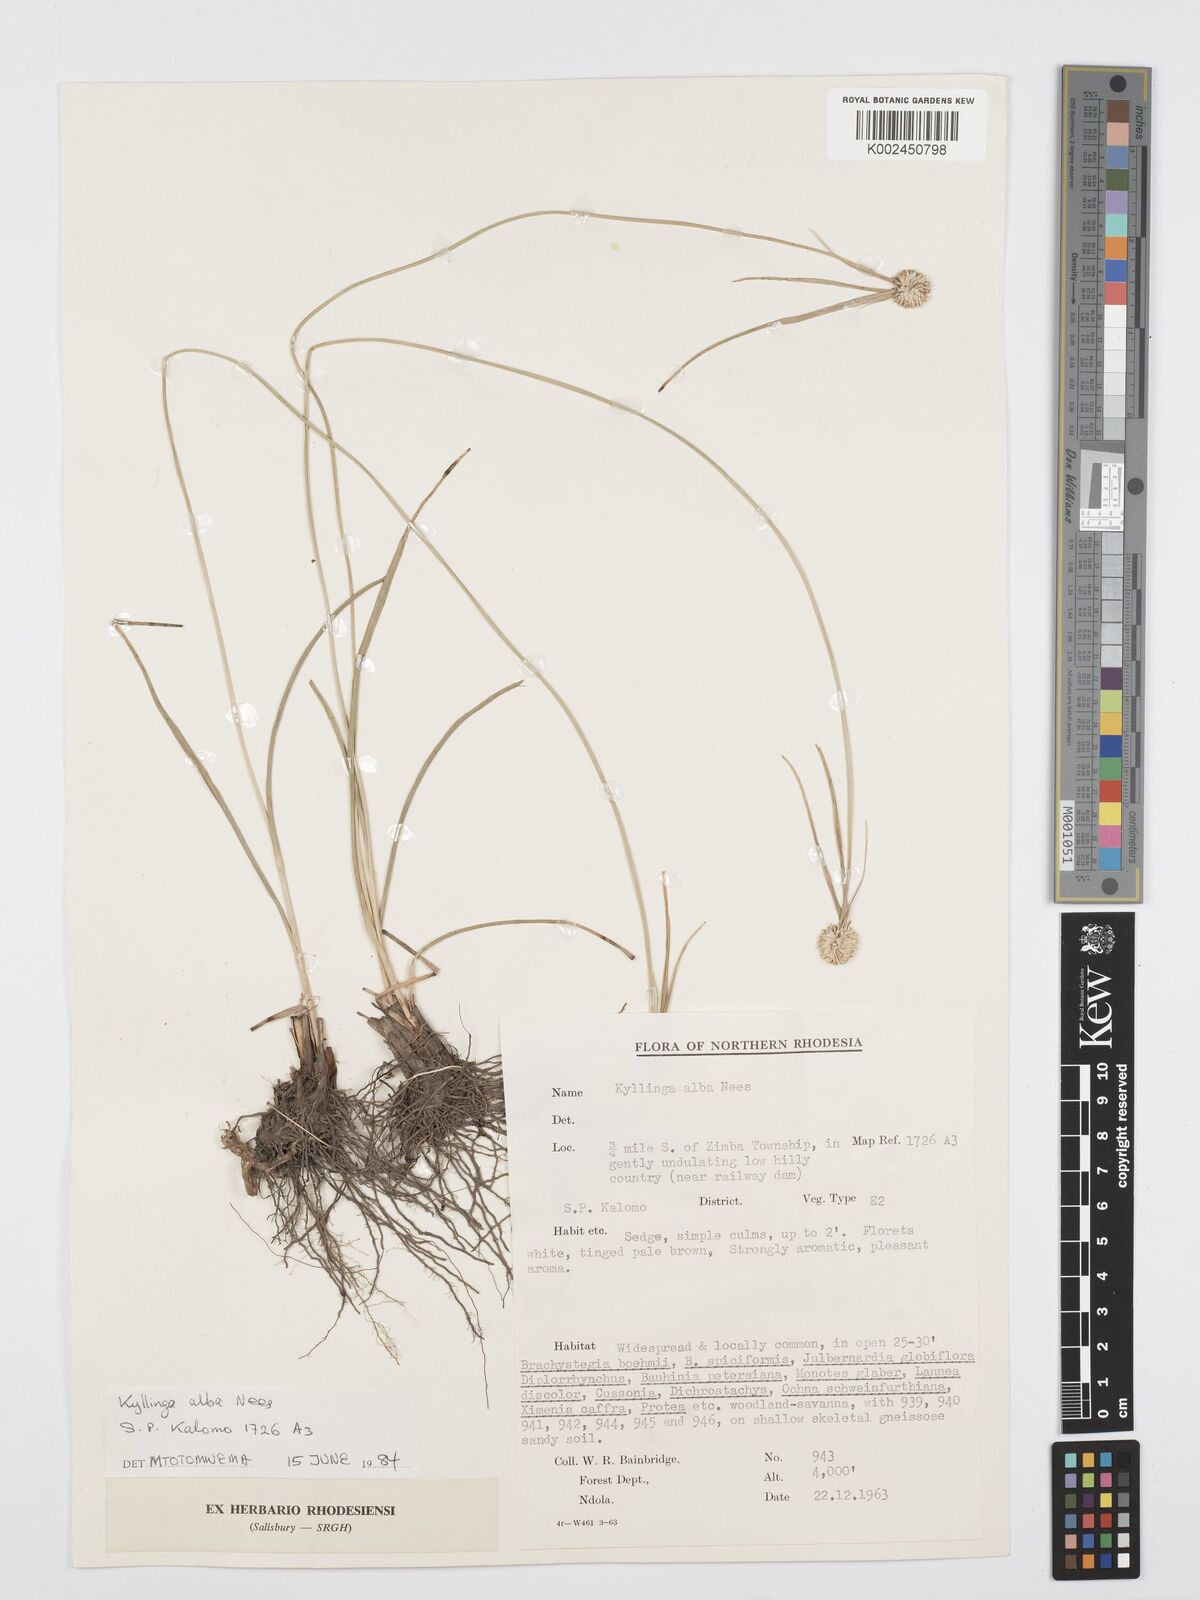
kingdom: Plantae
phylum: Tracheophyta
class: Liliopsida
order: Poales
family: Cyperaceae
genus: Cyperus
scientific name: Cyperus
